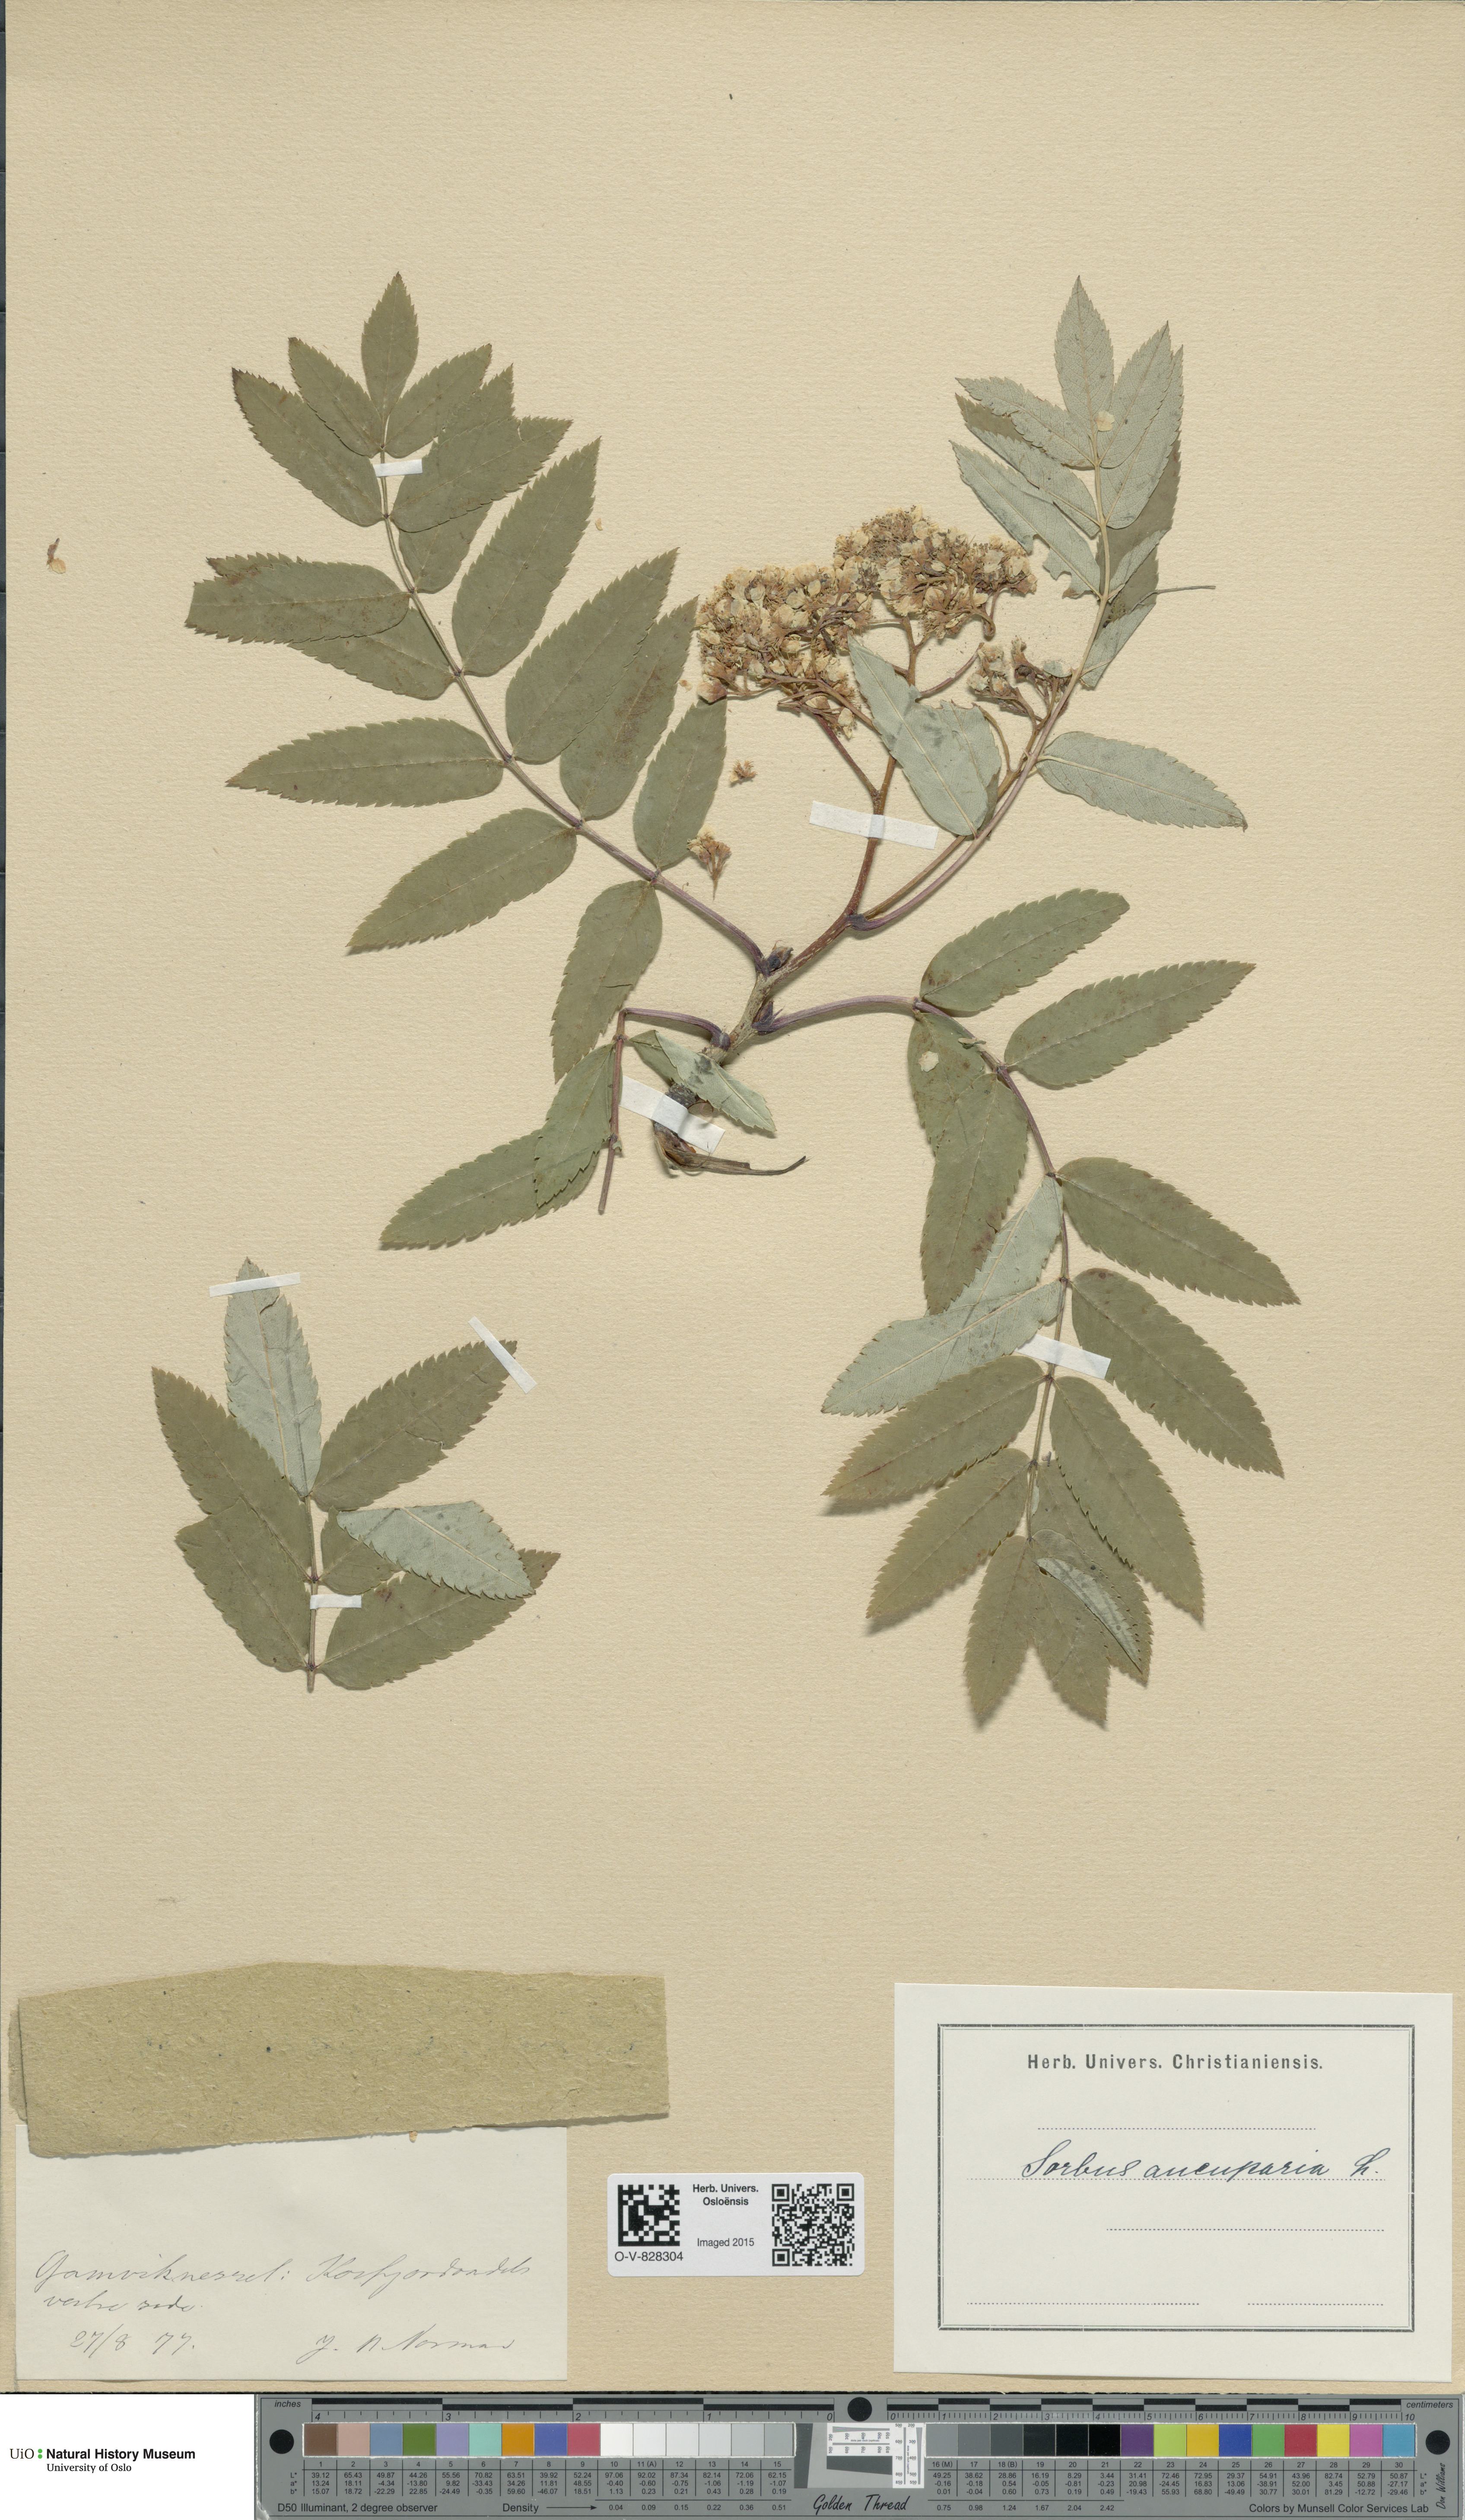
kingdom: Plantae
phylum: Tracheophyta
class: Magnoliopsida
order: Rosales
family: Rosaceae
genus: Sorbus
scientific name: Sorbus aucuparia
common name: Rowan
